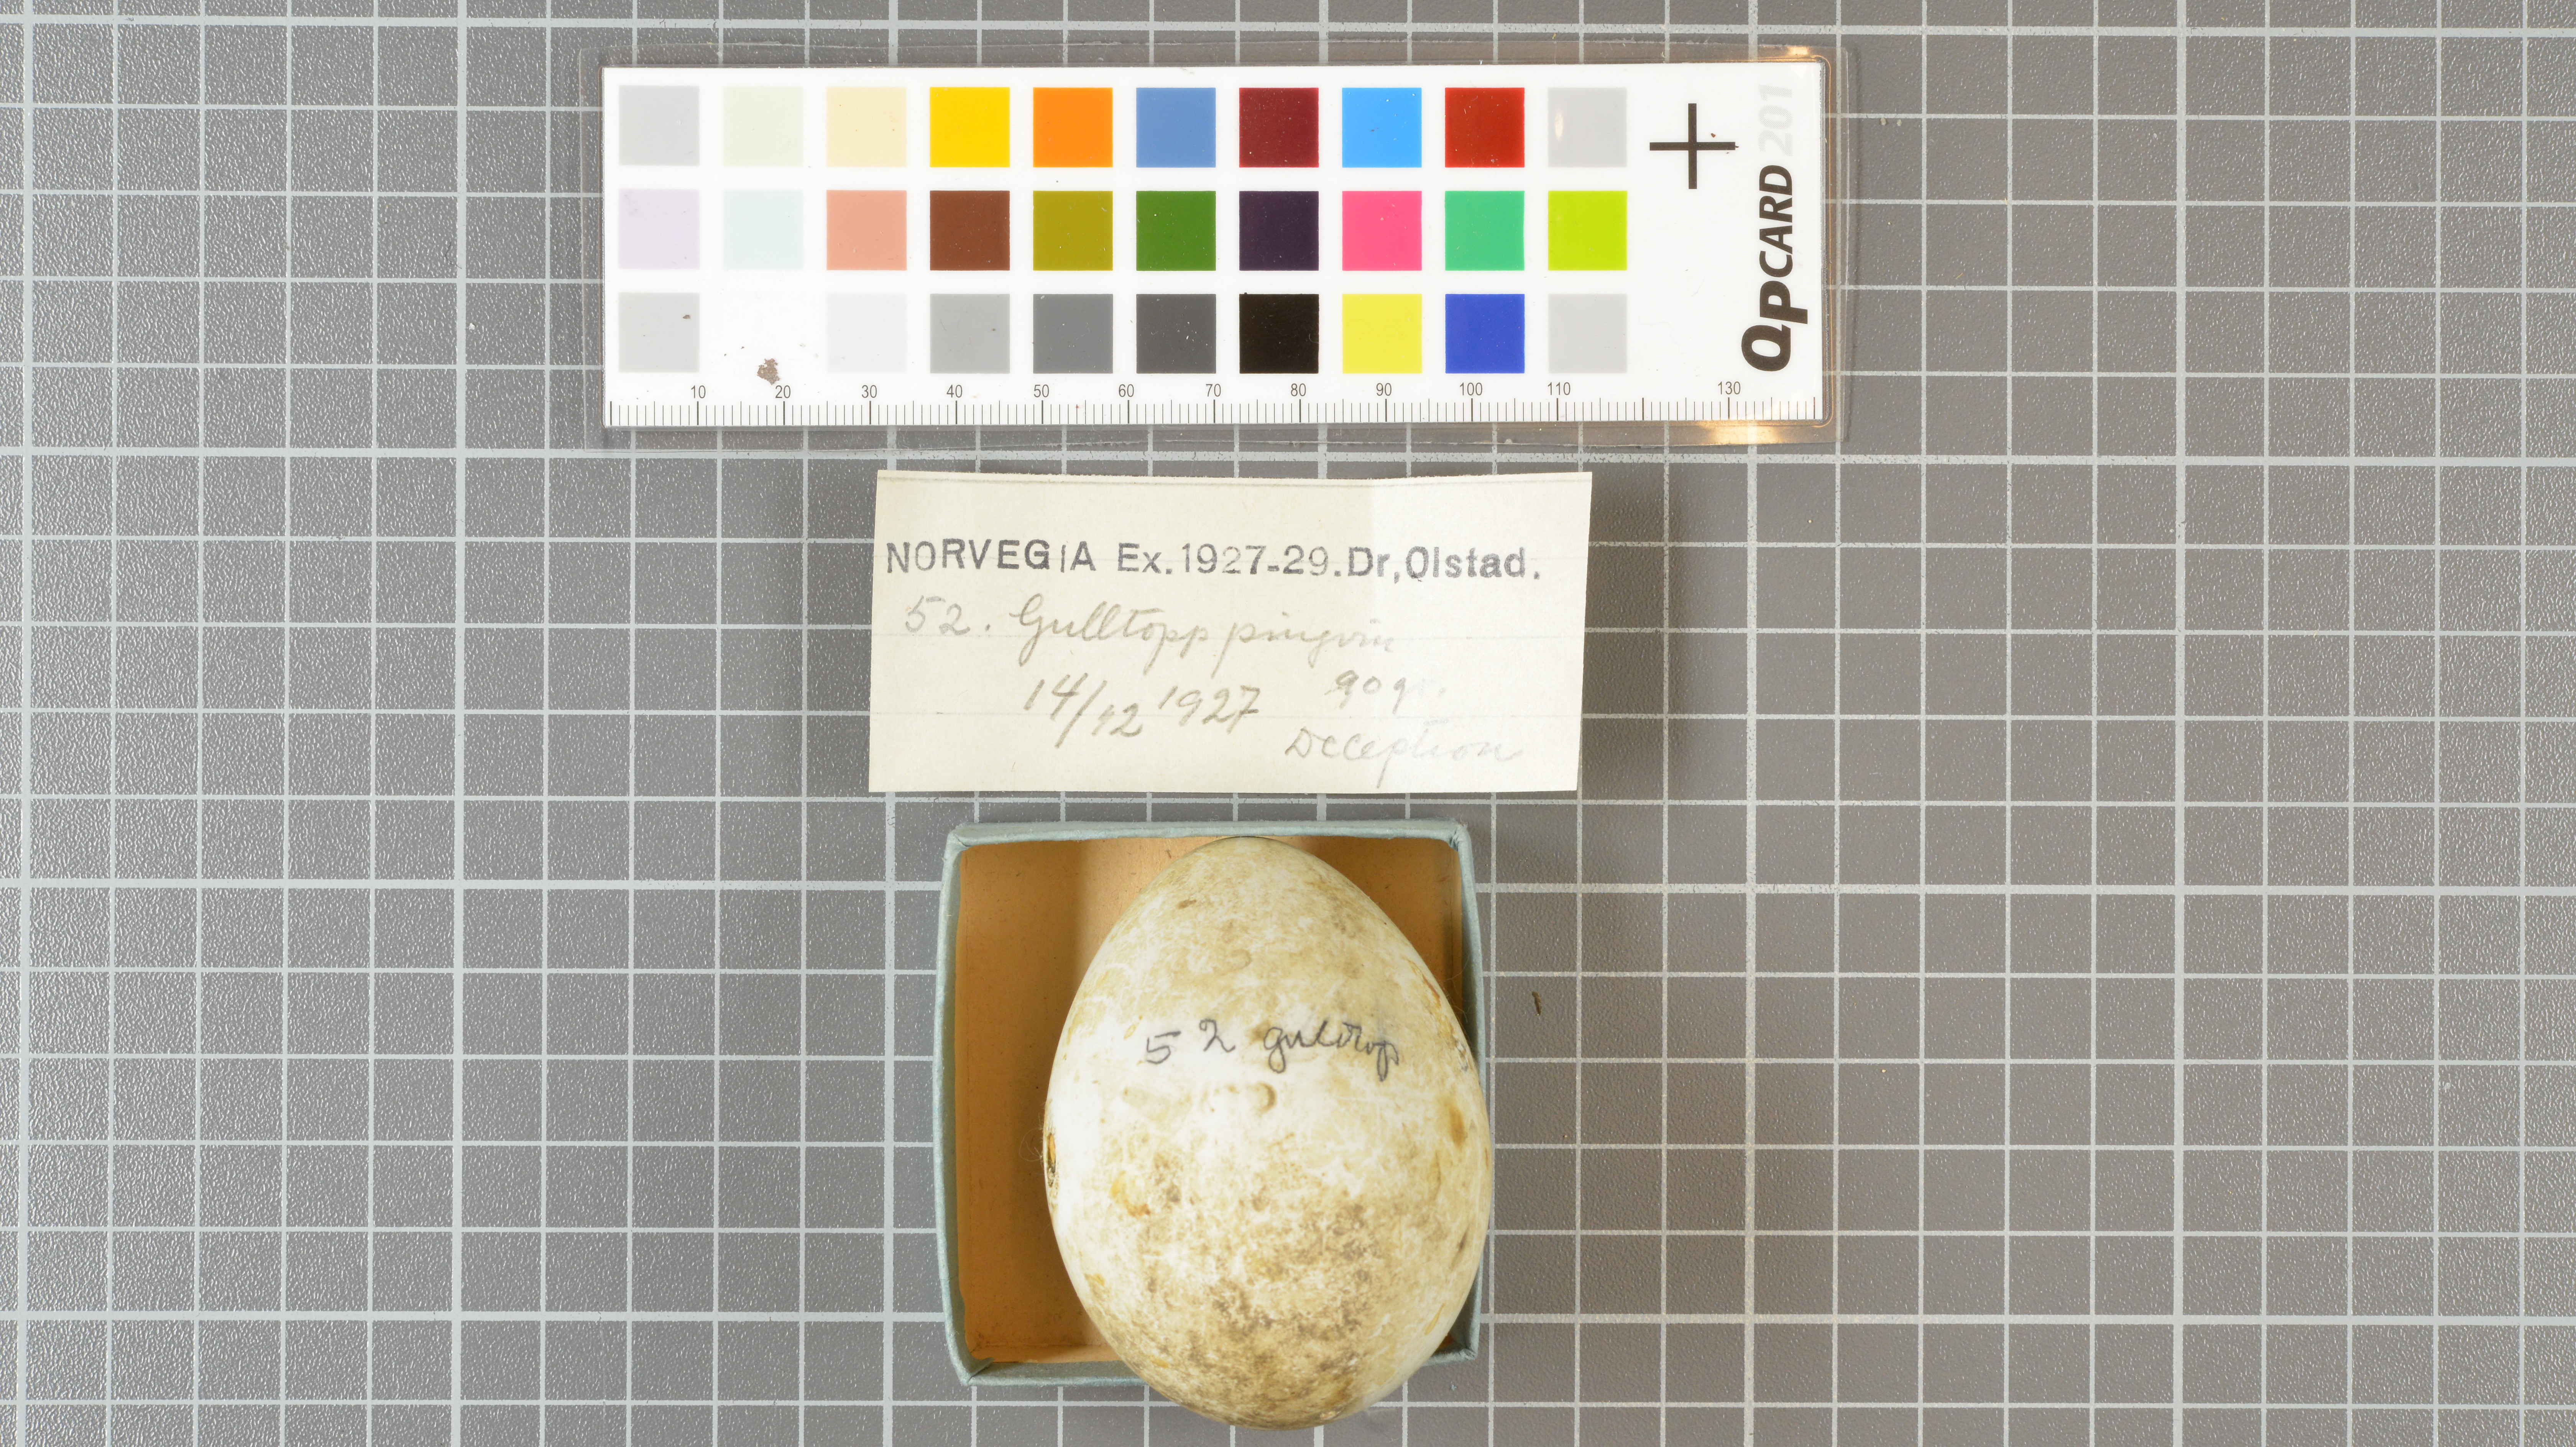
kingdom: Animalia
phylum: Chordata
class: Aves
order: Sphenisciformes
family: Spheniscidae
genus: Eudyptes
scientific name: Eudyptes chrysolophus
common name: Macaroni penguin
